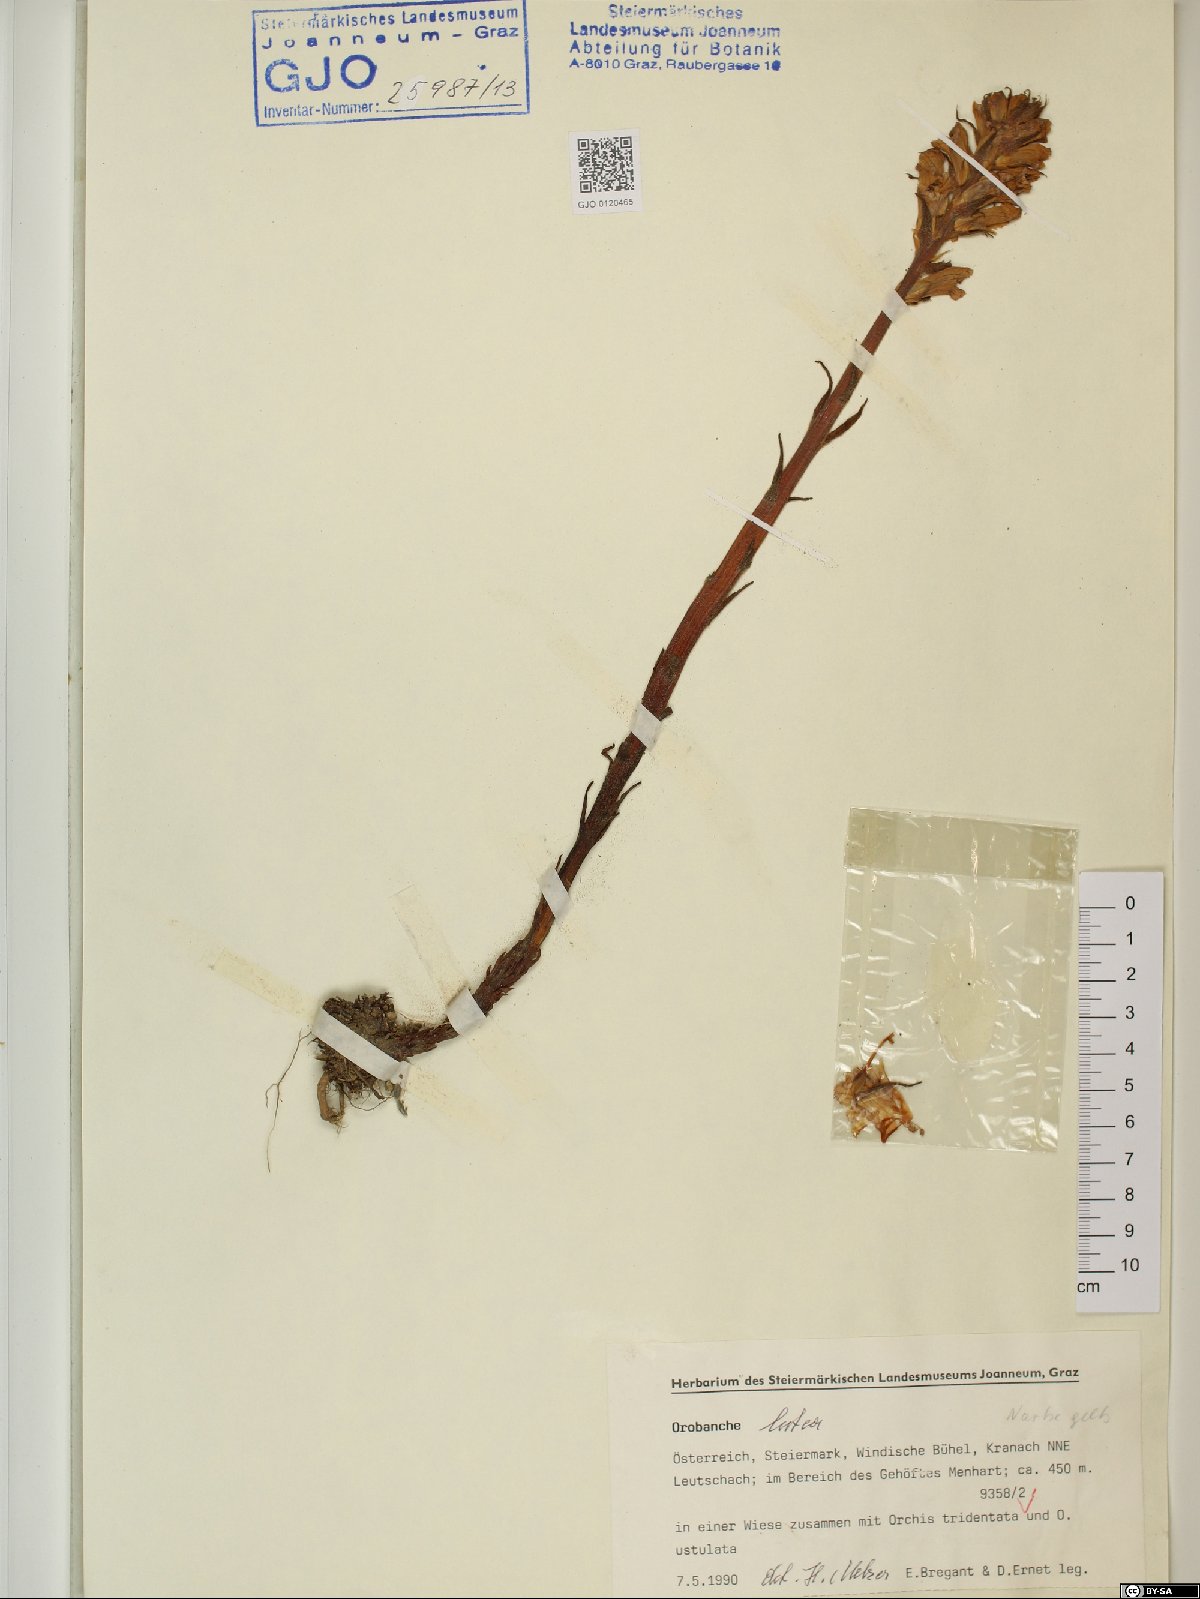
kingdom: Plantae
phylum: Tracheophyta
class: Magnoliopsida
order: Lamiales
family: Orobanchaceae
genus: Orobanche
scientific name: Orobanche lutea
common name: Yellow broomrape
